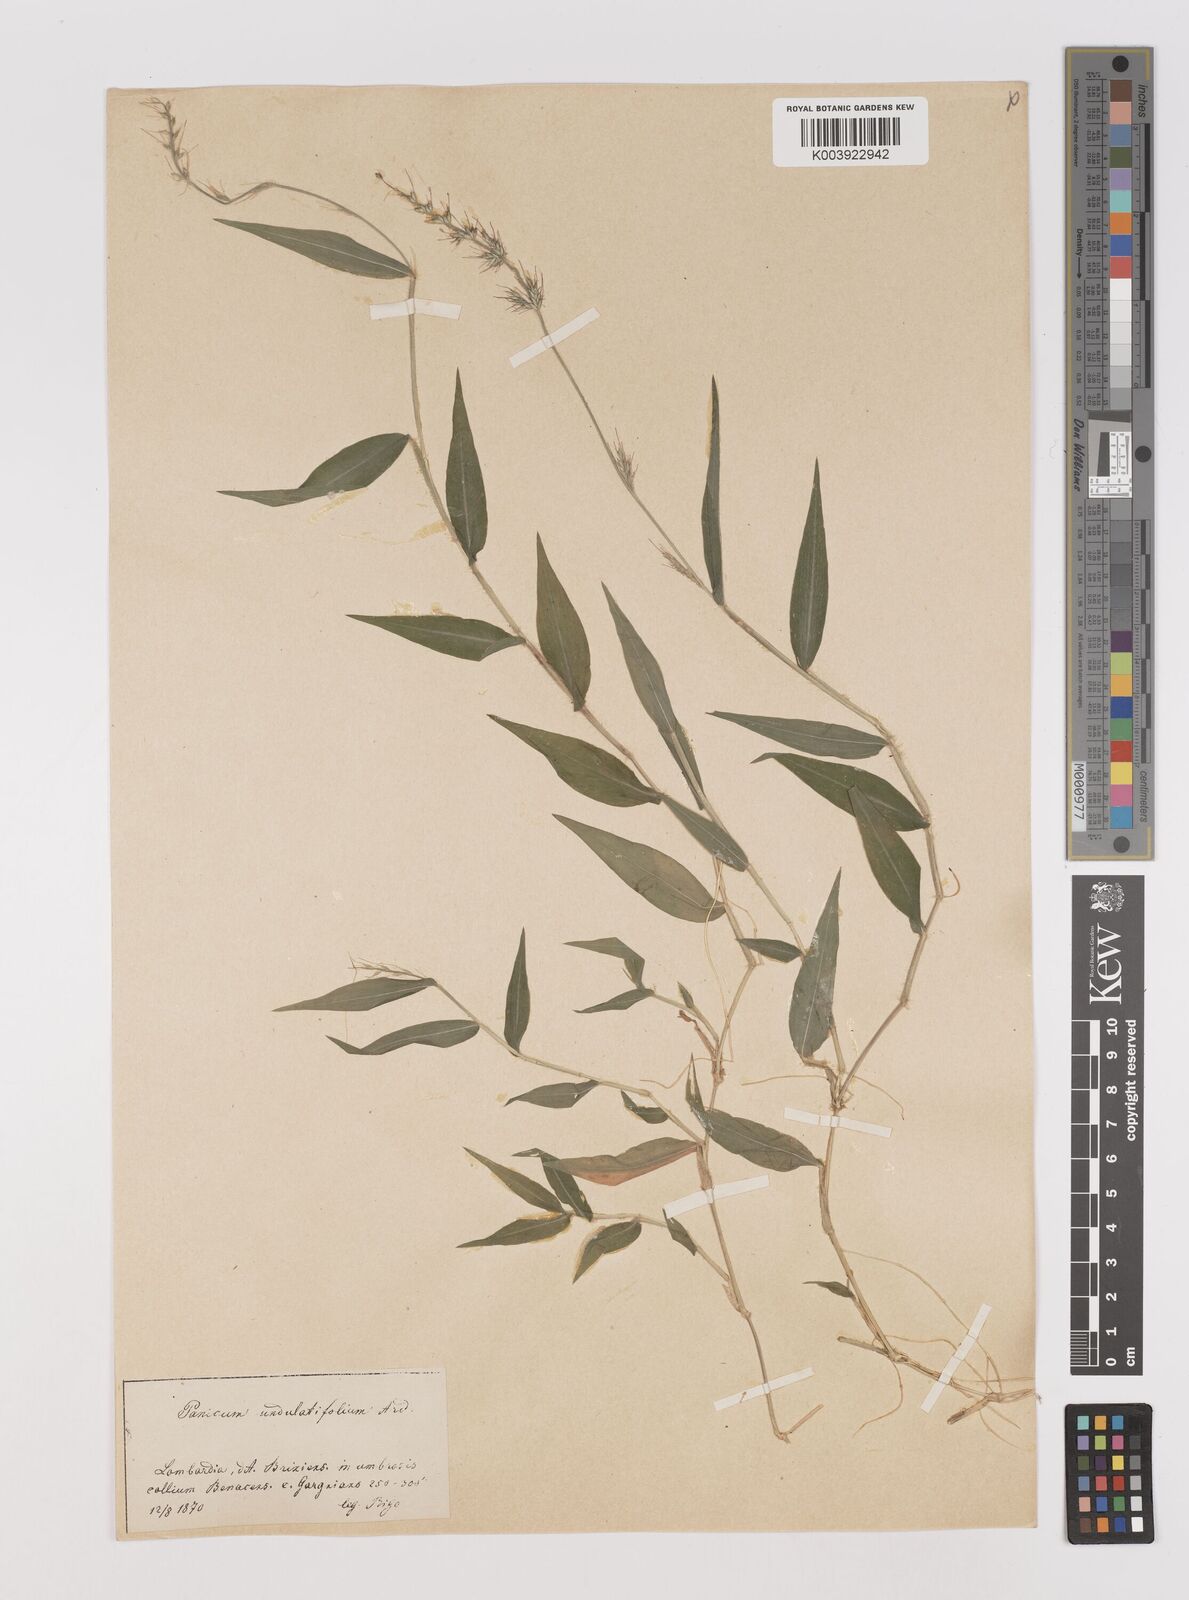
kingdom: Plantae
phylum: Tracheophyta
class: Liliopsida
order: Poales
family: Poaceae
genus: Oplismenus
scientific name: Oplismenus undulatifolius
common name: Wavyleaf basketgrass
